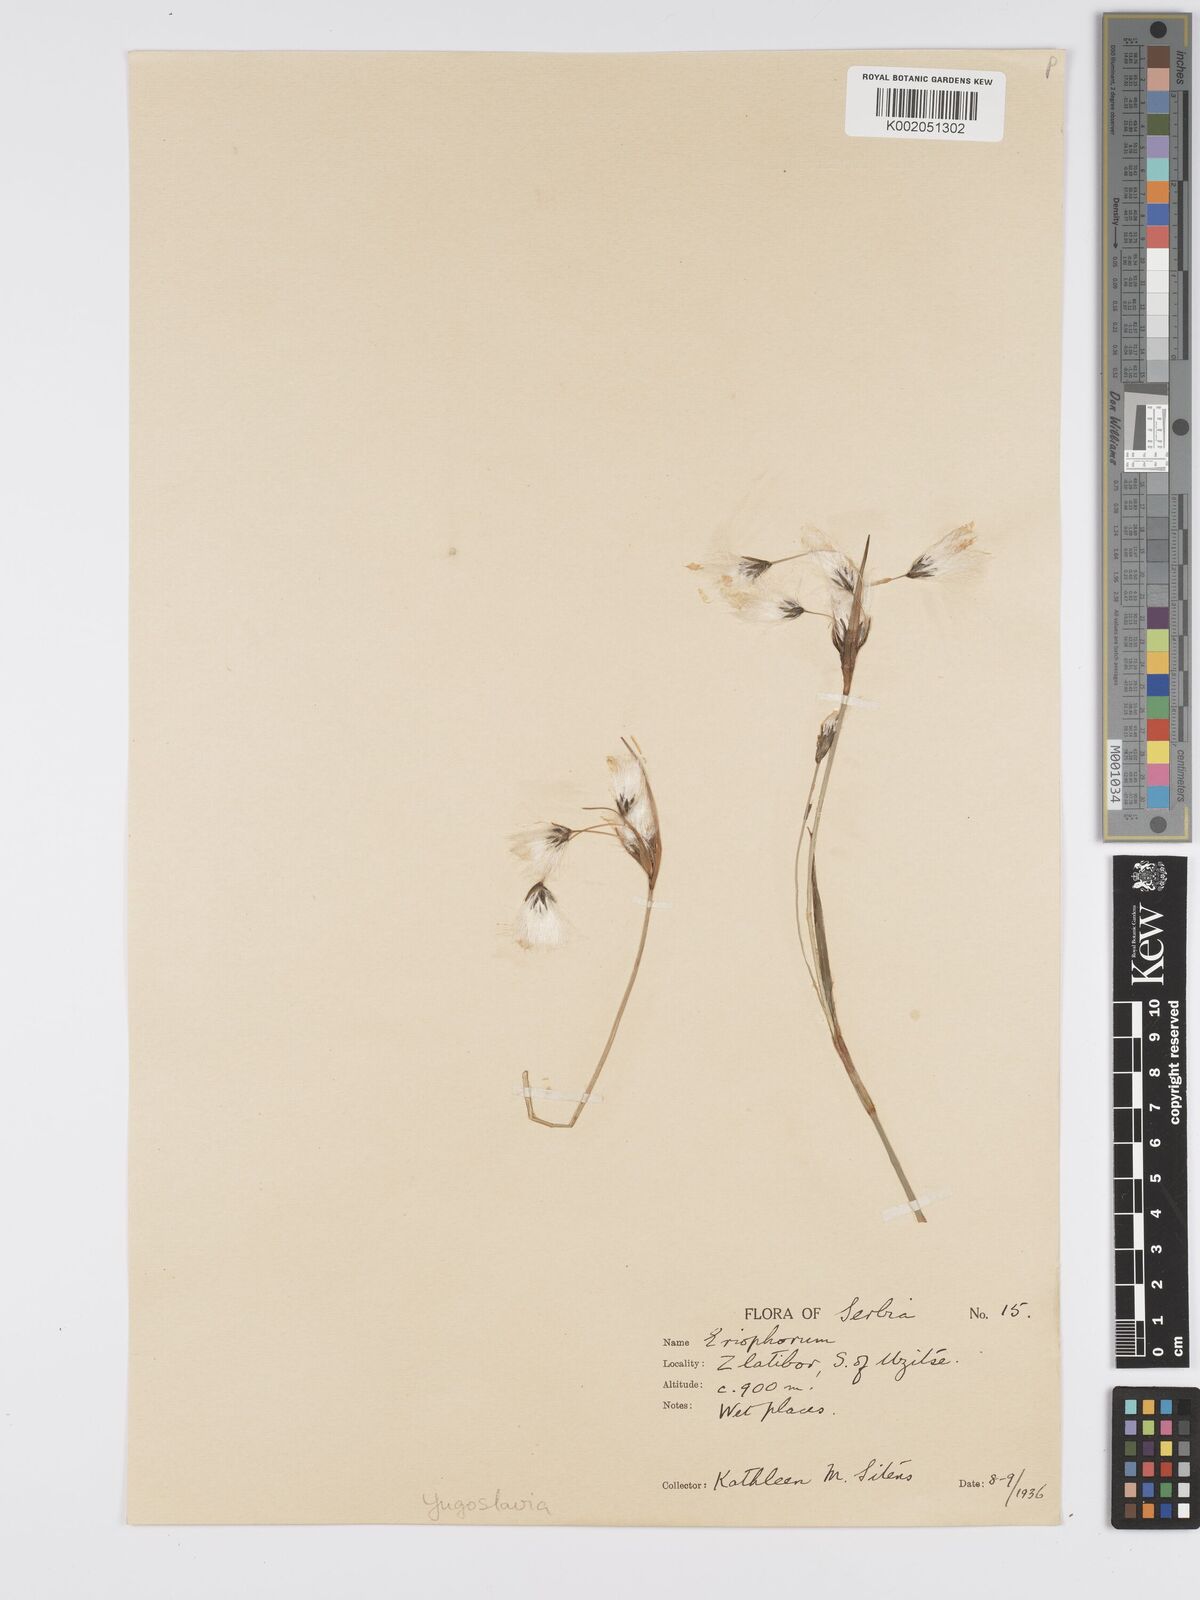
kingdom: Plantae
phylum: Tracheophyta
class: Liliopsida
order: Poales
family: Cyperaceae
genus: Eriophorum
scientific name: Eriophorum latifolium
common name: Broad-leaved cottongrass
